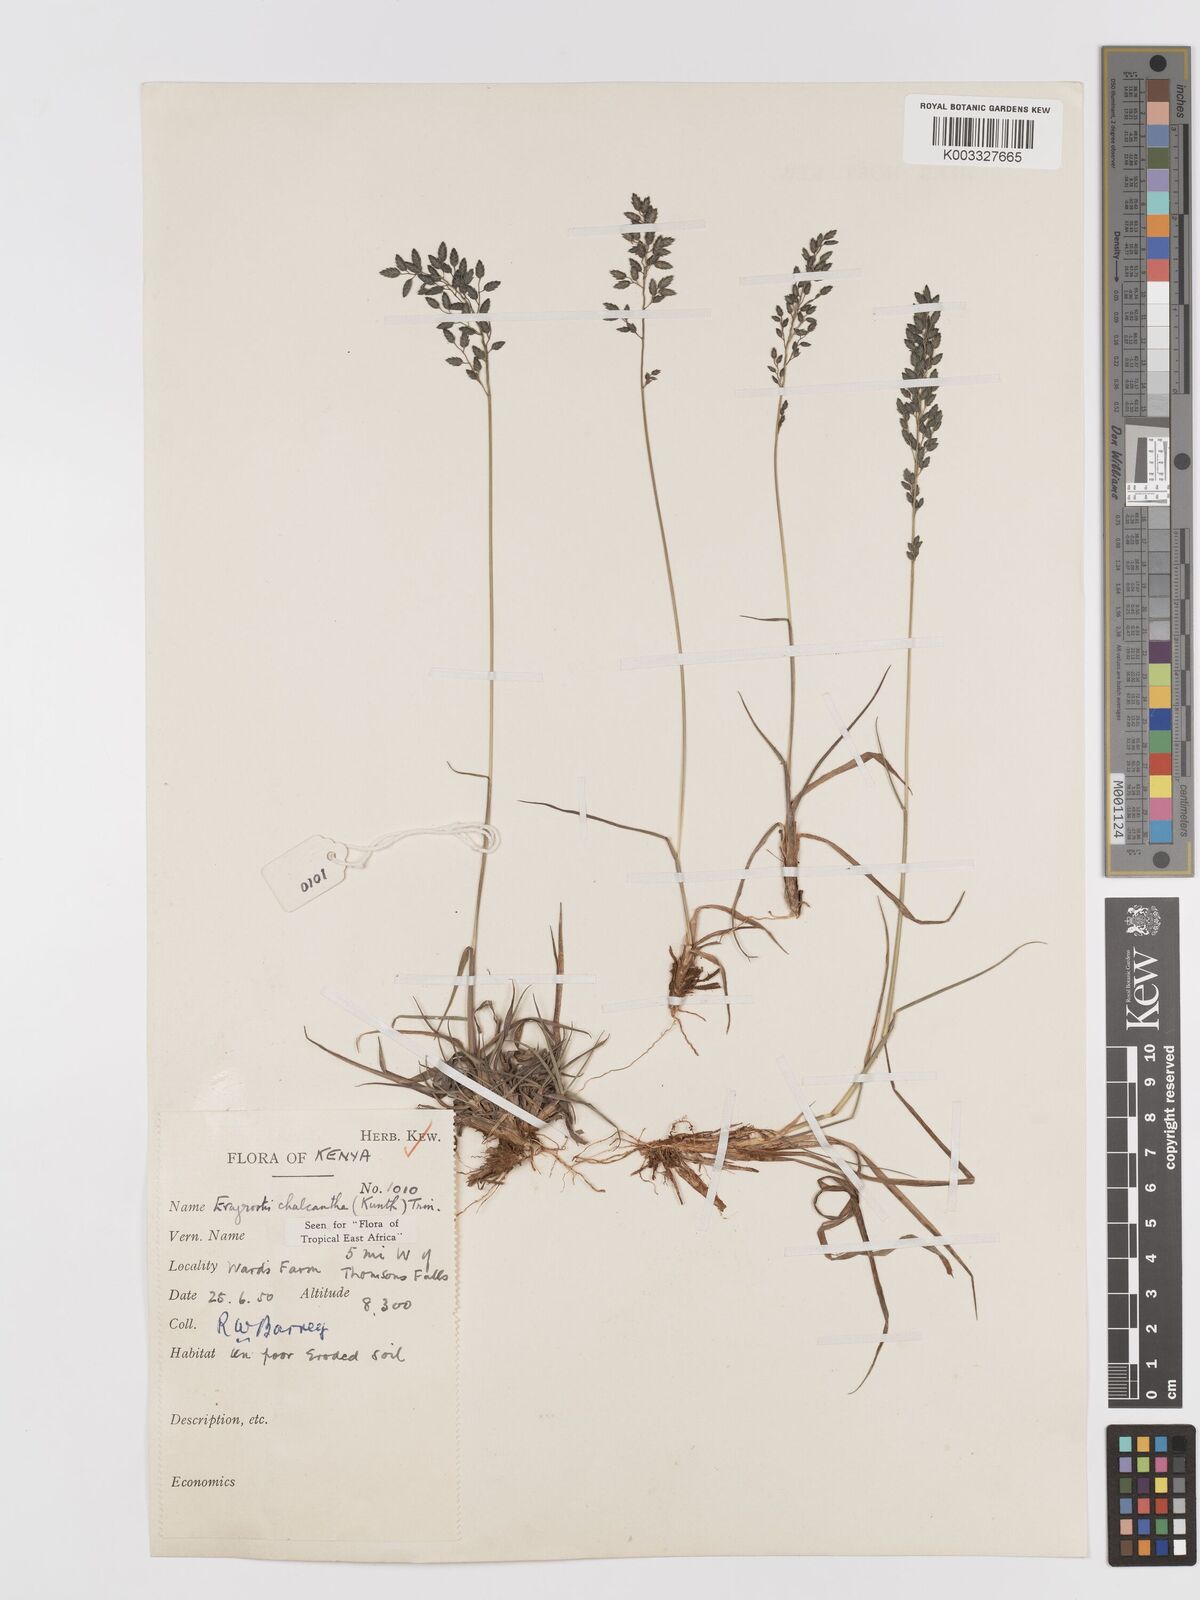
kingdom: Plantae
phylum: Tracheophyta
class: Liliopsida
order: Poales
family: Poaceae
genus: Eragrostis
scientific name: Eragrostis racemosa
